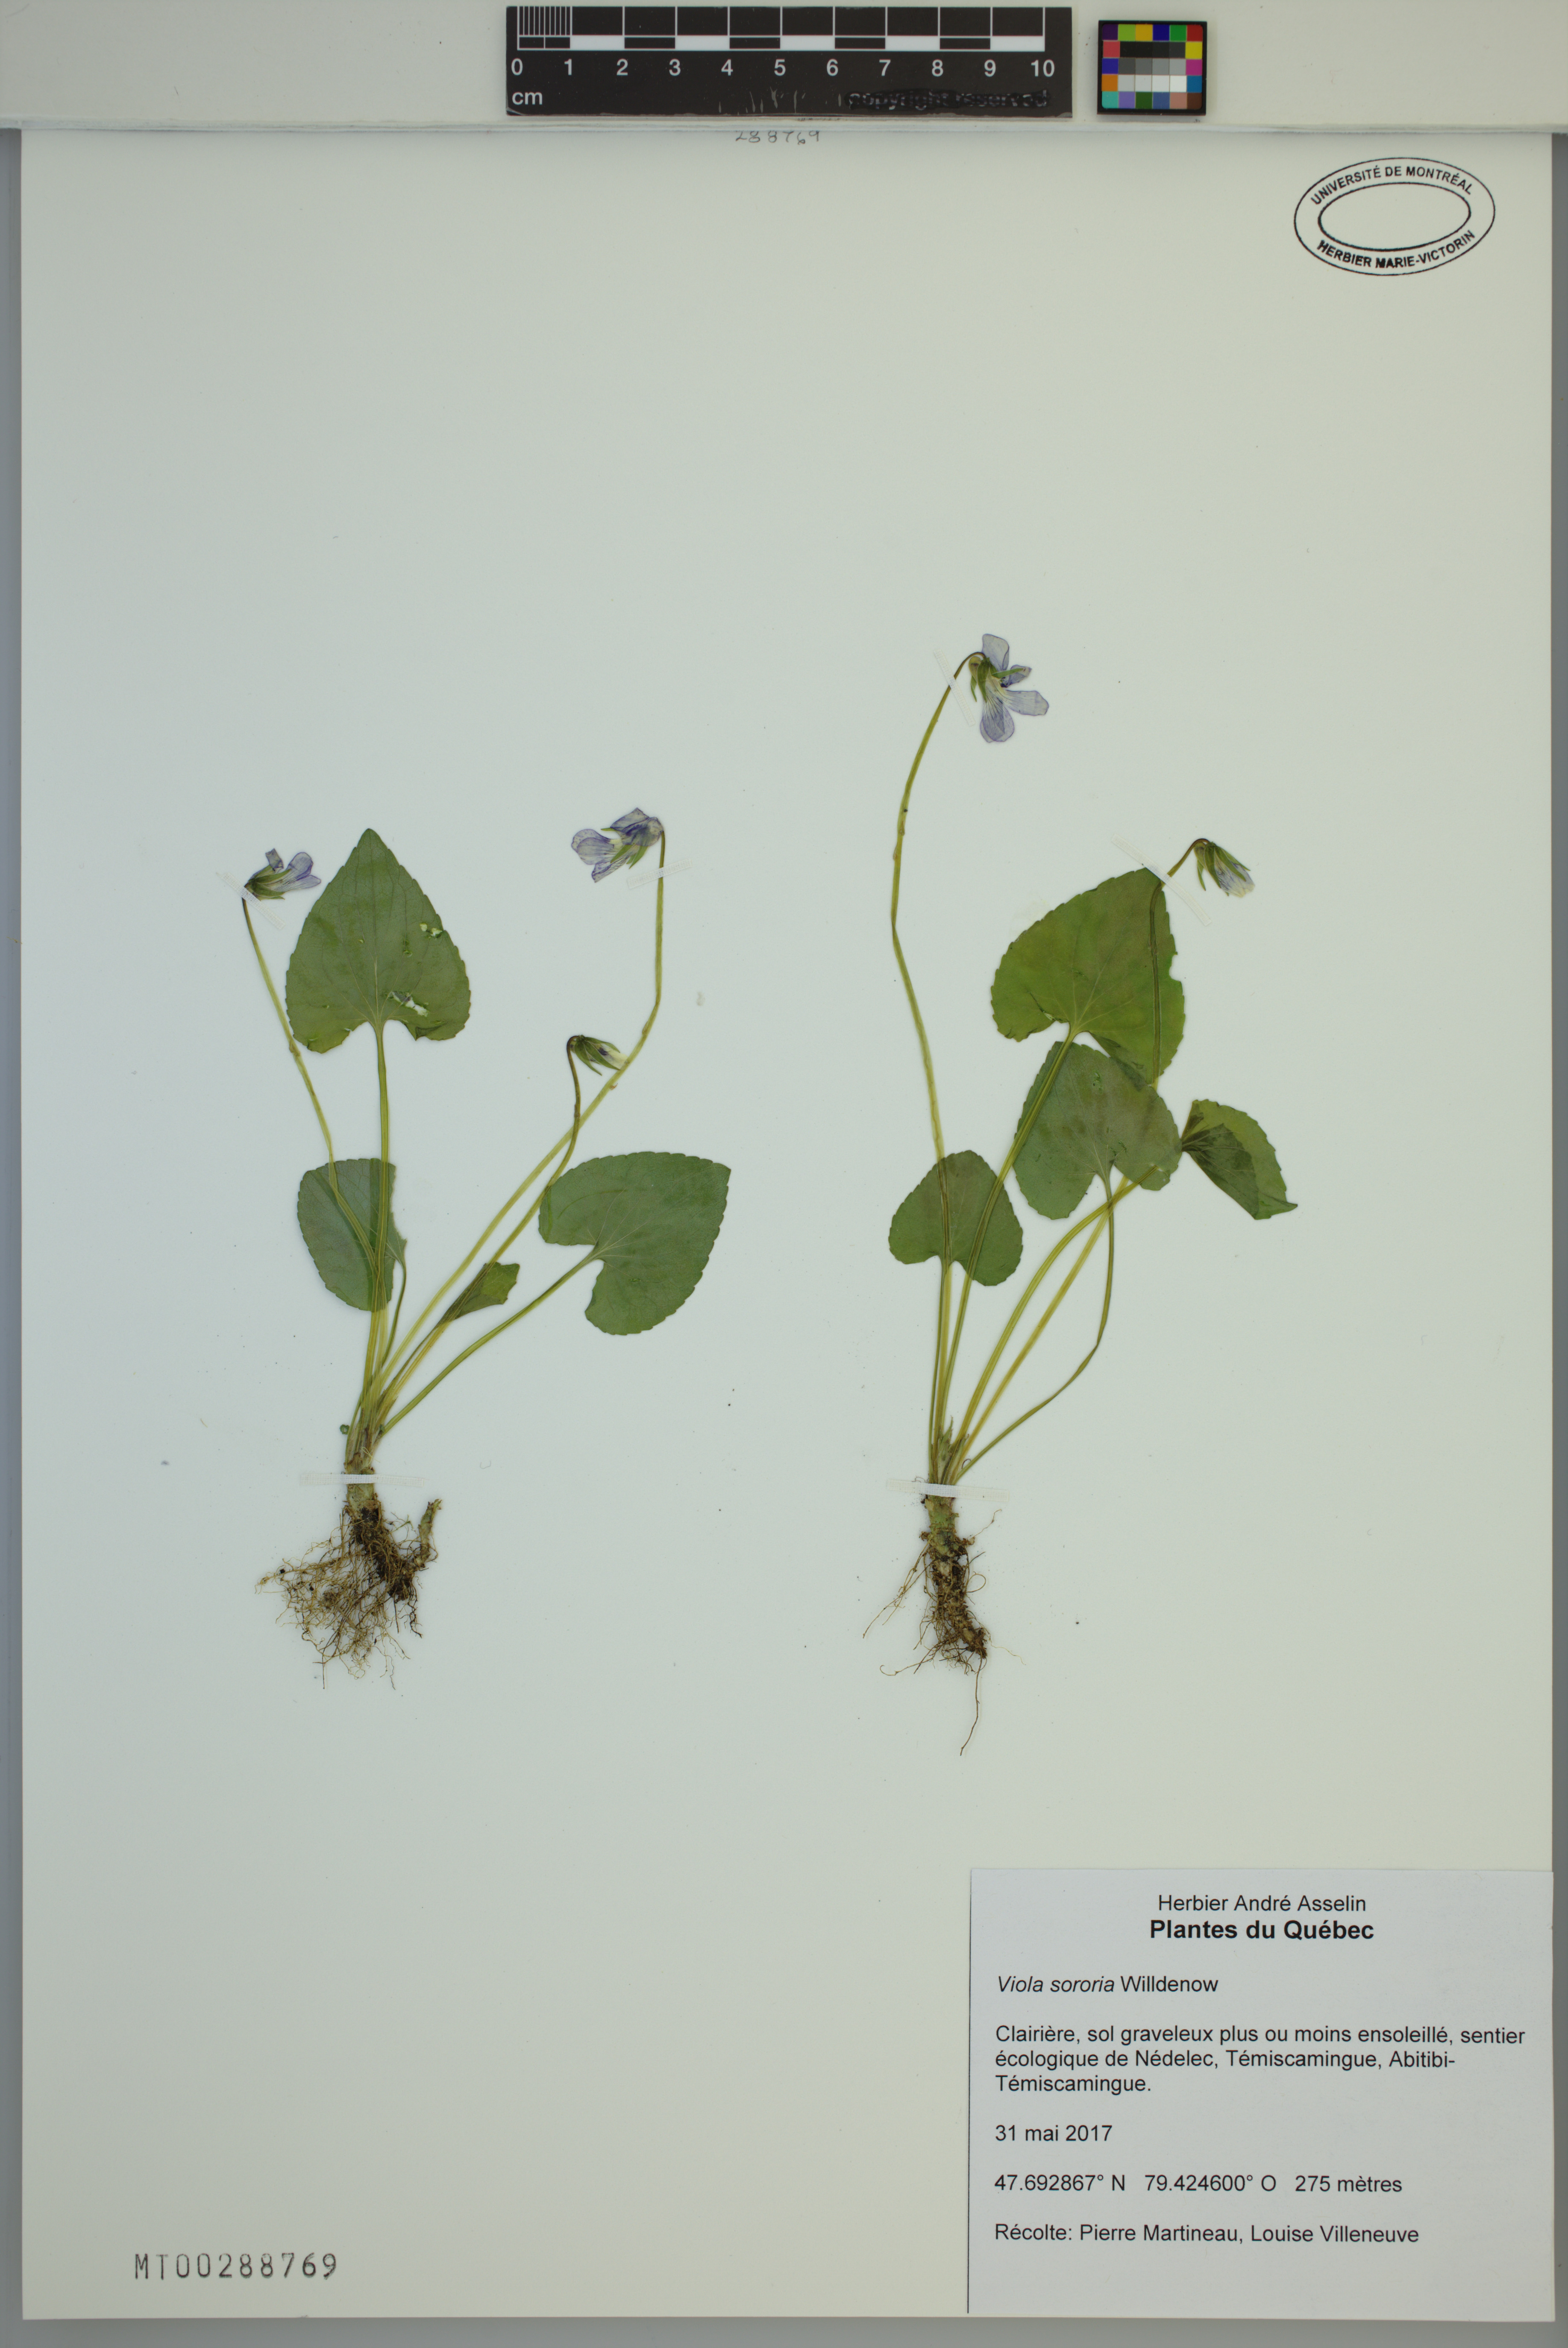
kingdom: Plantae
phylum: Tracheophyta
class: Magnoliopsida
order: Malpighiales
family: Violaceae
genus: Viola
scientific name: Viola sororia
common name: Dooryard violet
